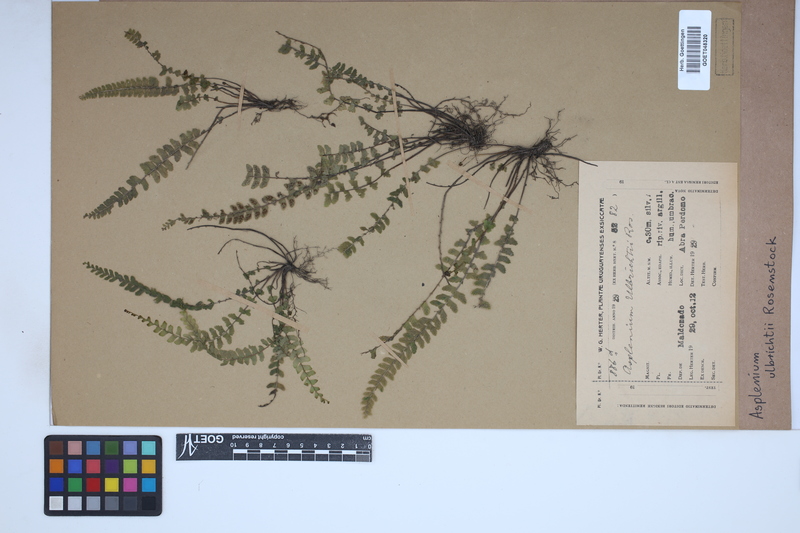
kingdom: Plantae
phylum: Tracheophyta
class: Polypodiopsida
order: Polypodiales
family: Aspleniaceae
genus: Asplenium
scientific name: Asplenium ulbrichtii
